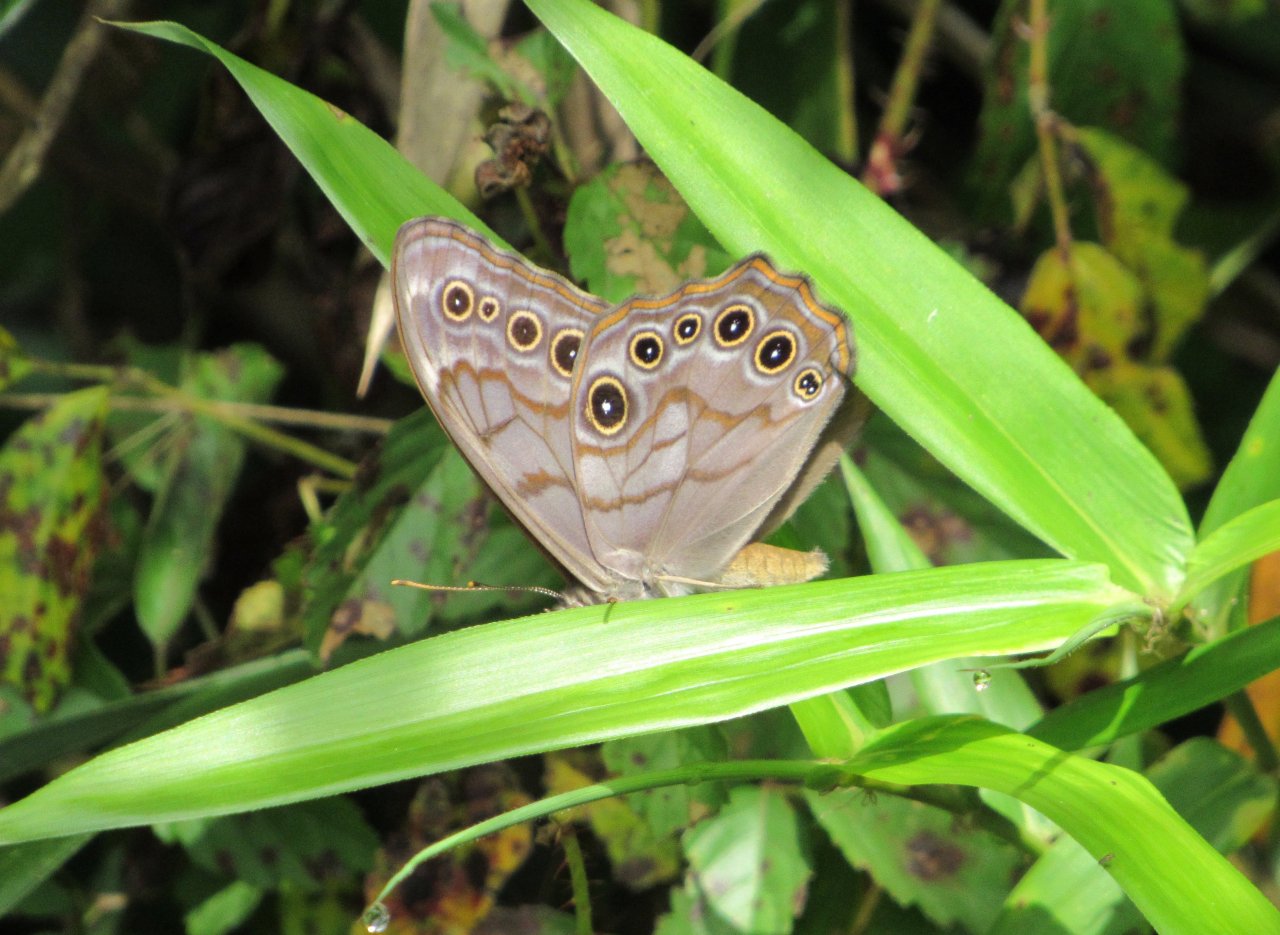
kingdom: Animalia
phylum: Arthropoda
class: Insecta
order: Lepidoptera
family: Nymphalidae
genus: Lethe
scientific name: Lethe creola
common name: Creole Pearly-Eye
